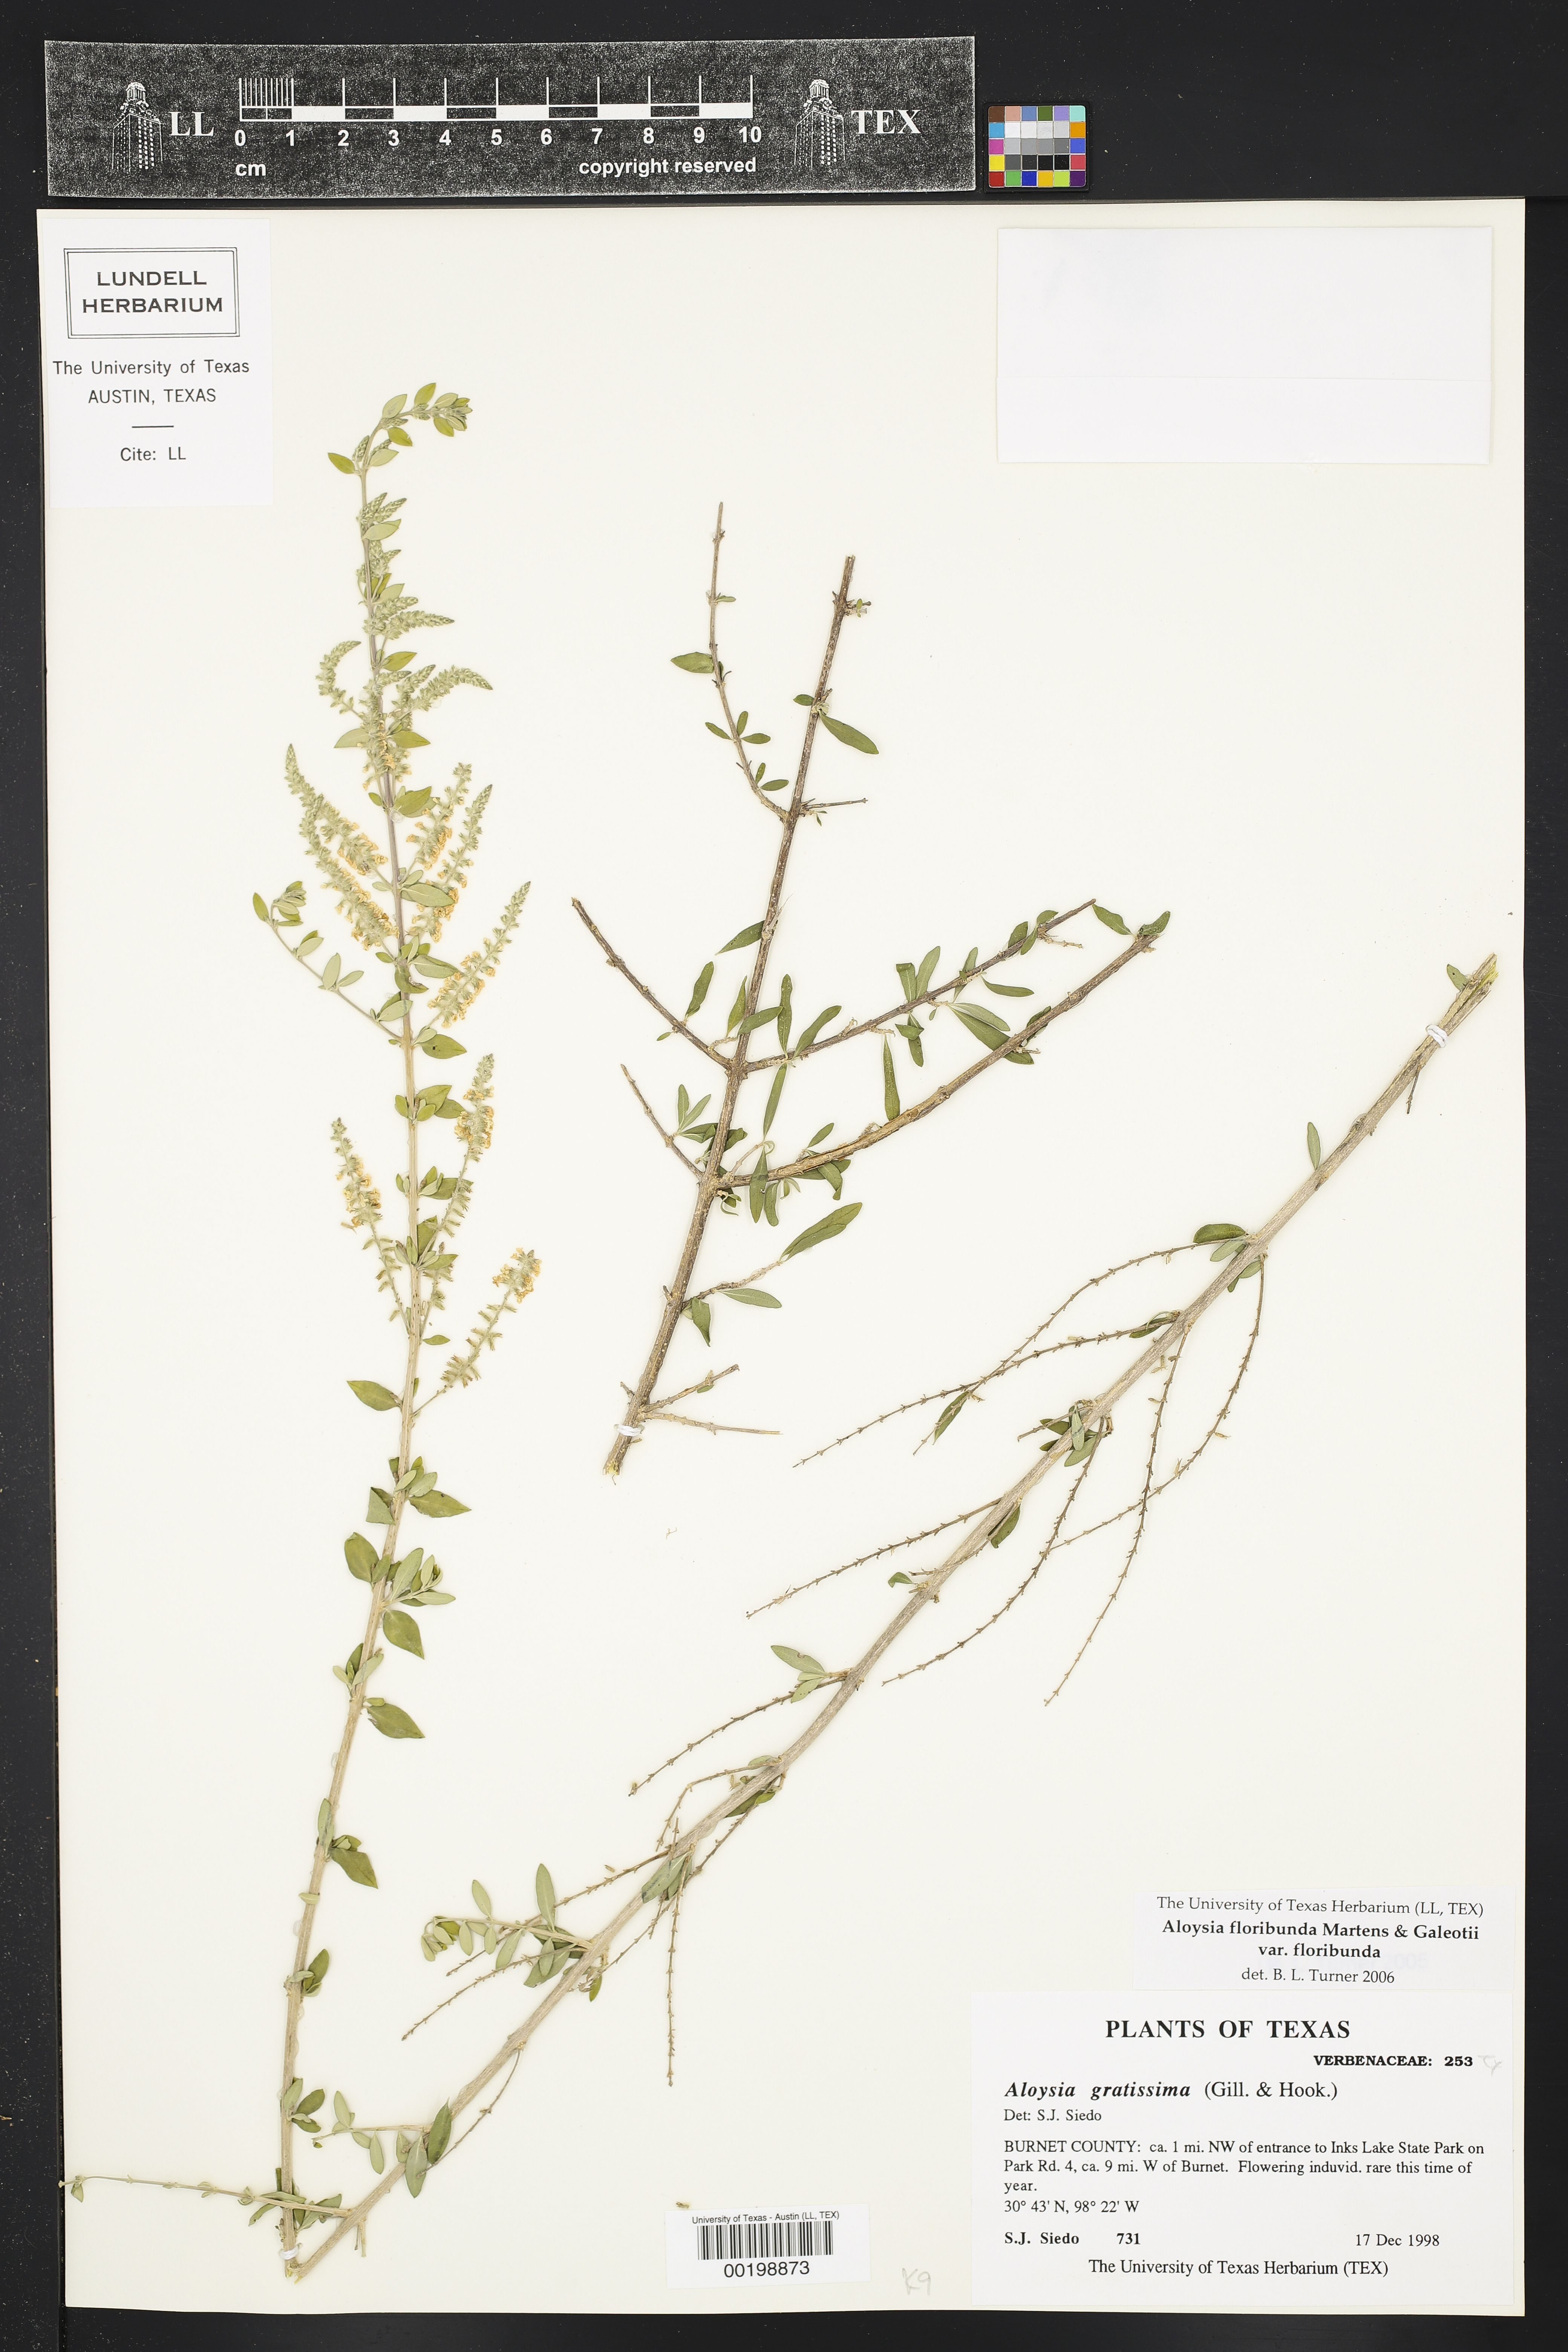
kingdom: Plantae
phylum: Tracheophyta
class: Magnoliopsida
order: Lamiales
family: Verbenaceae
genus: Aloysia
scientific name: Aloysia gratissima
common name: Common bee-brush
